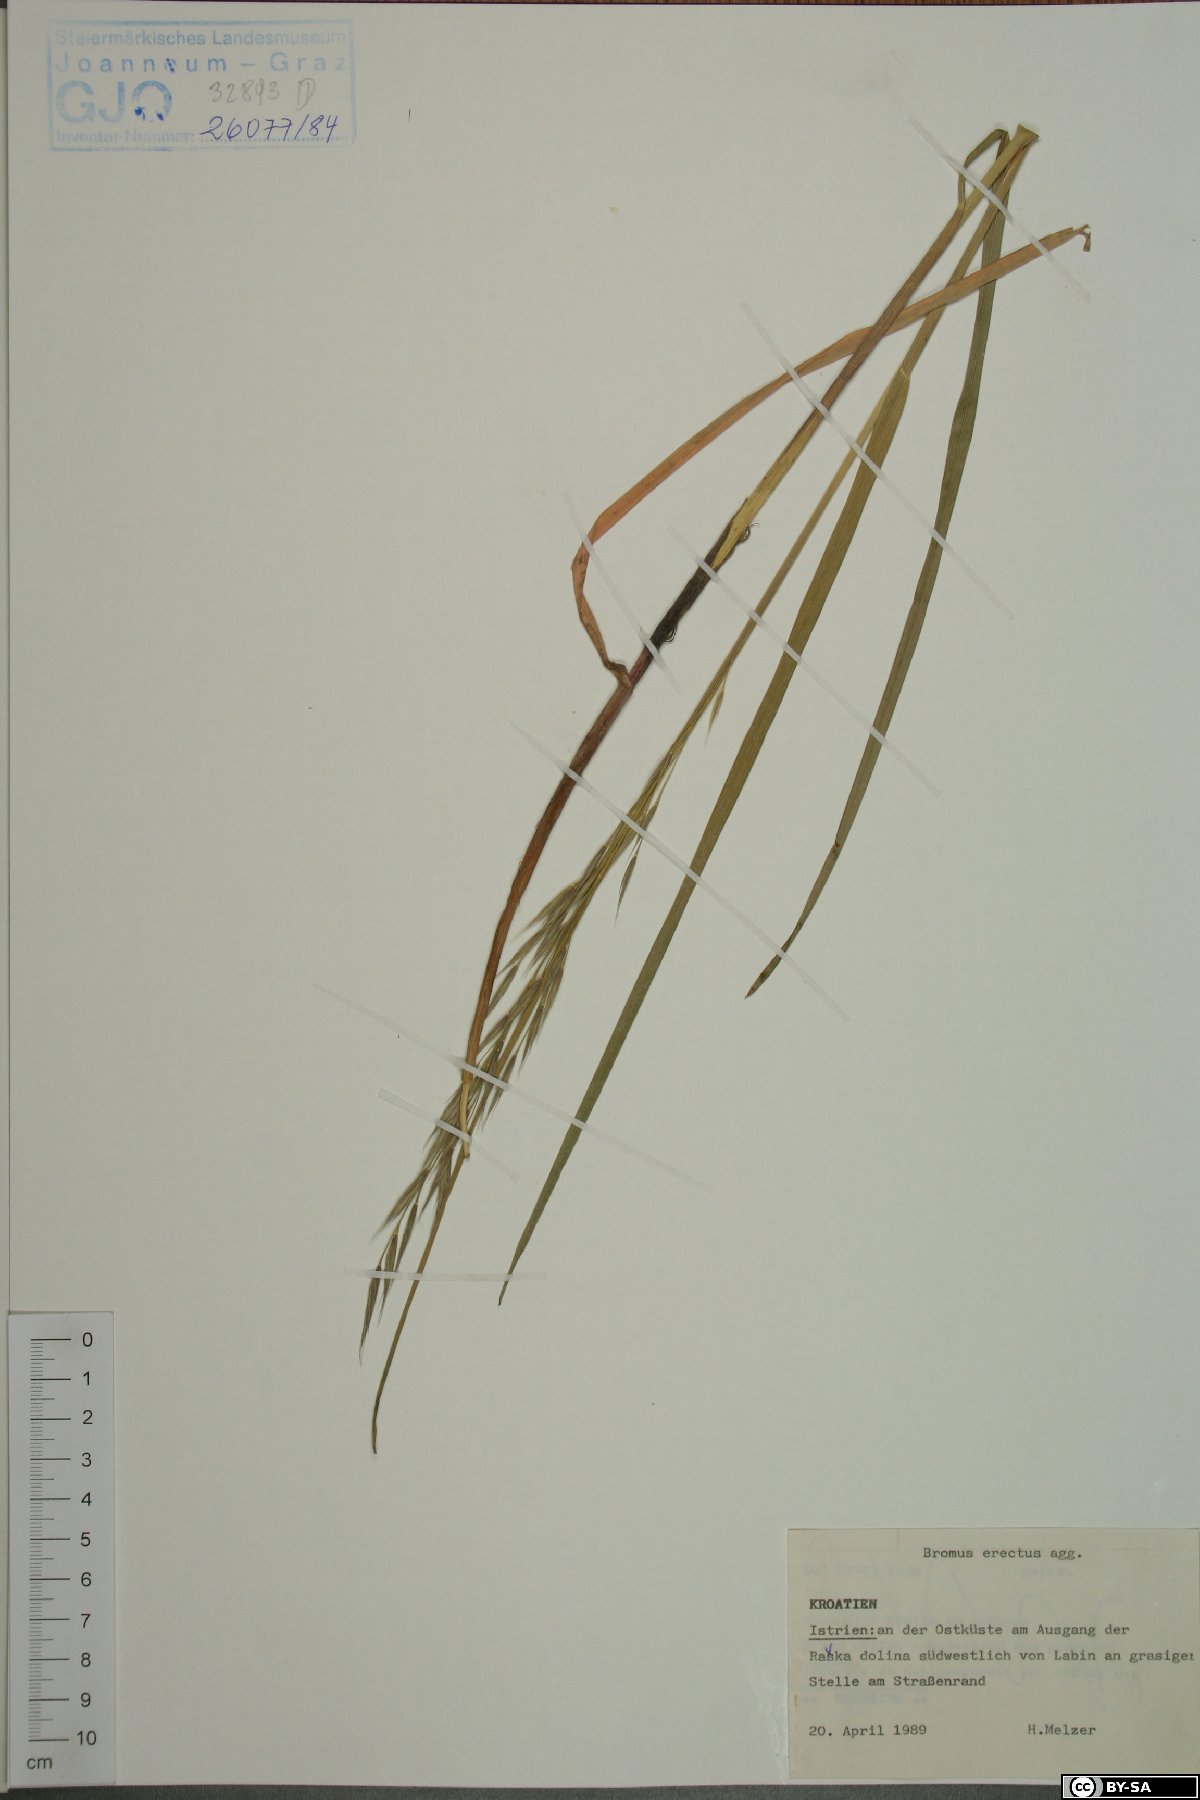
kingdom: Plantae
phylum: Tracheophyta
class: Liliopsida
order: Poales
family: Poaceae
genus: Bromus
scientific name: Bromus erectus
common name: Erect brome
